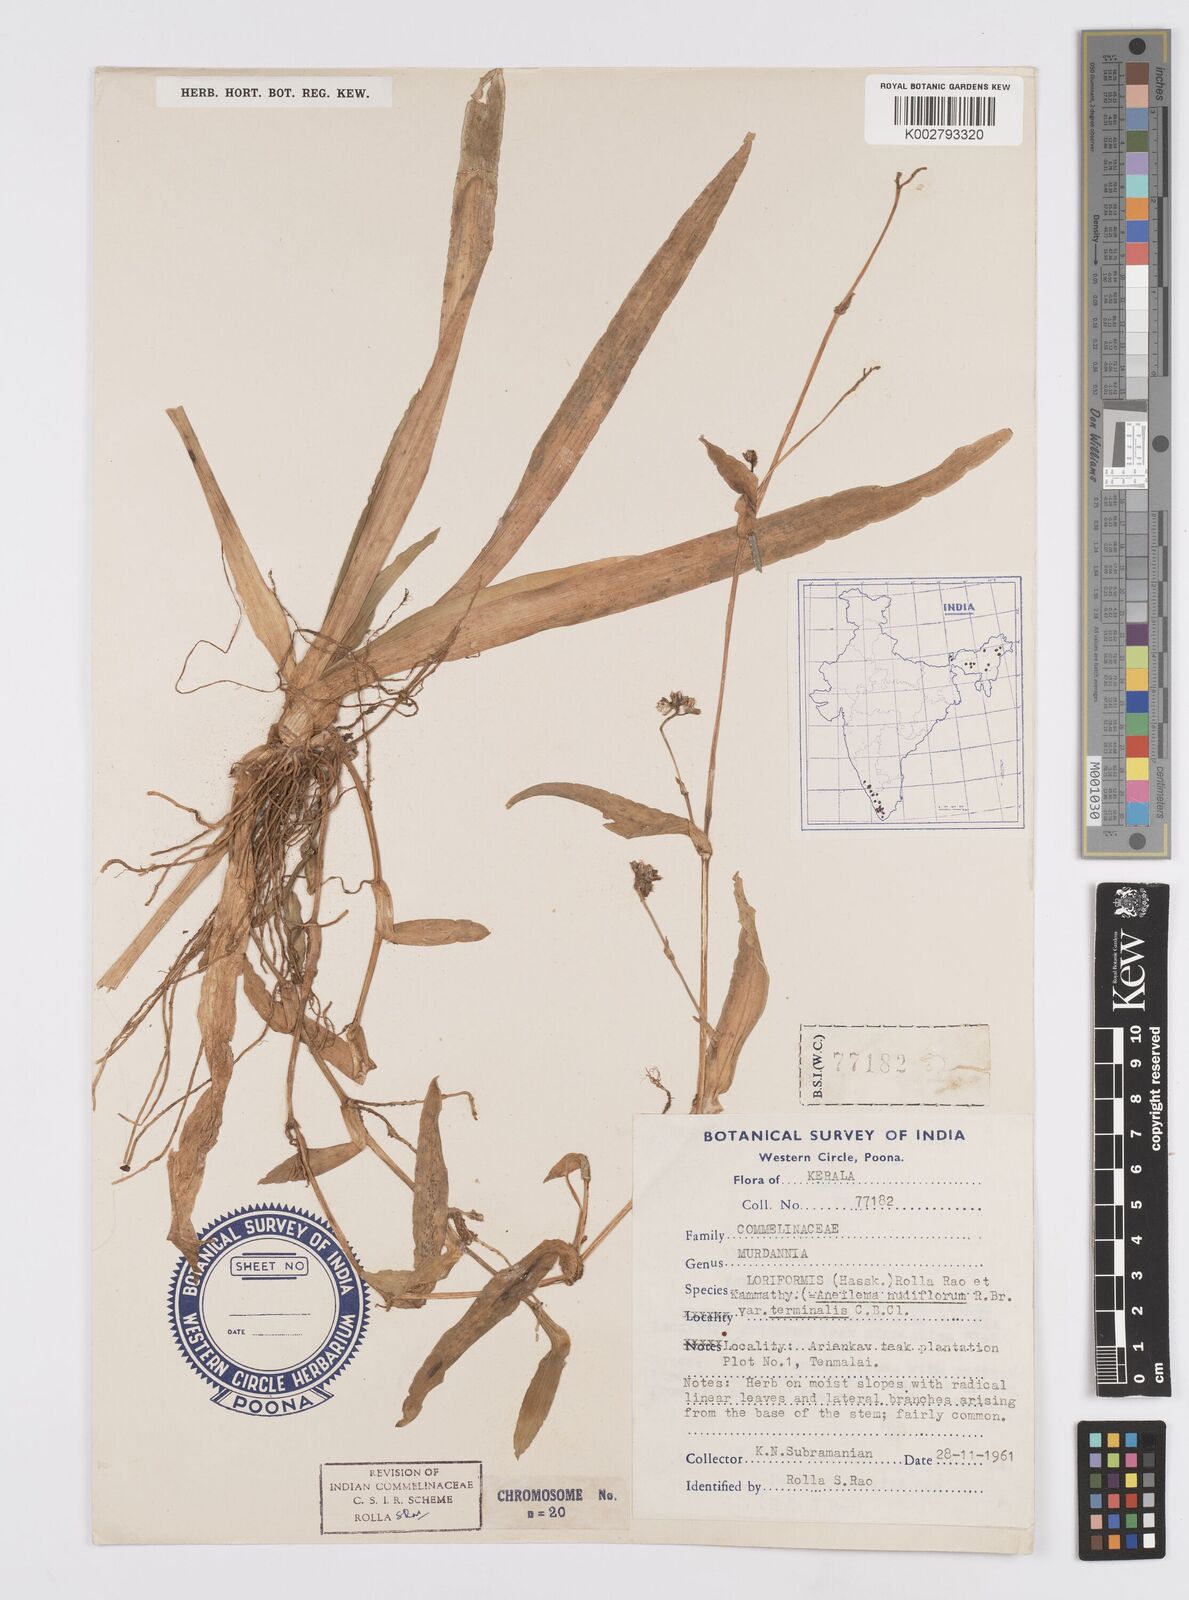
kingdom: Plantae
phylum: Tracheophyta
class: Liliopsida
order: Commelinales
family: Commelinaceae
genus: Murdannia
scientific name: Murdannia loriformis
